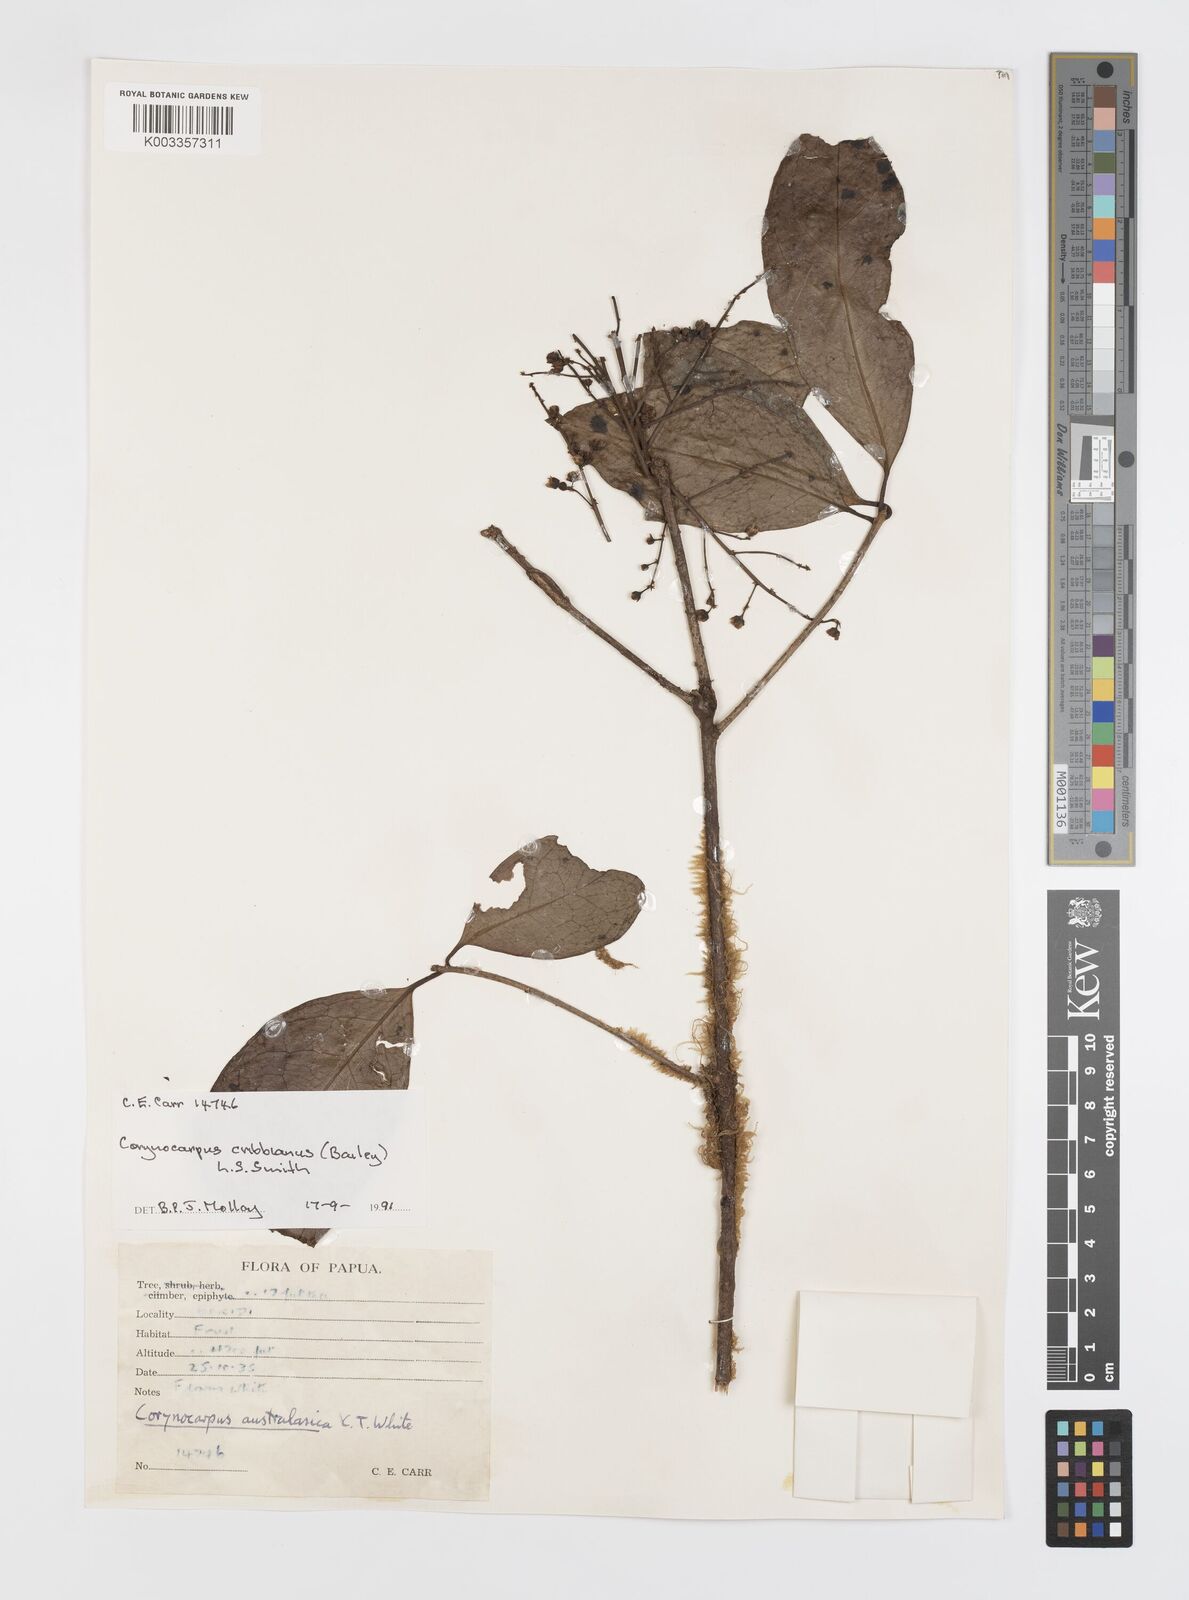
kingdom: Plantae
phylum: Tracheophyta
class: Magnoliopsida
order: Cucurbitales
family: Corynocarpaceae
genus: Corynocarpus
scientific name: Corynocarpus cribbianus
